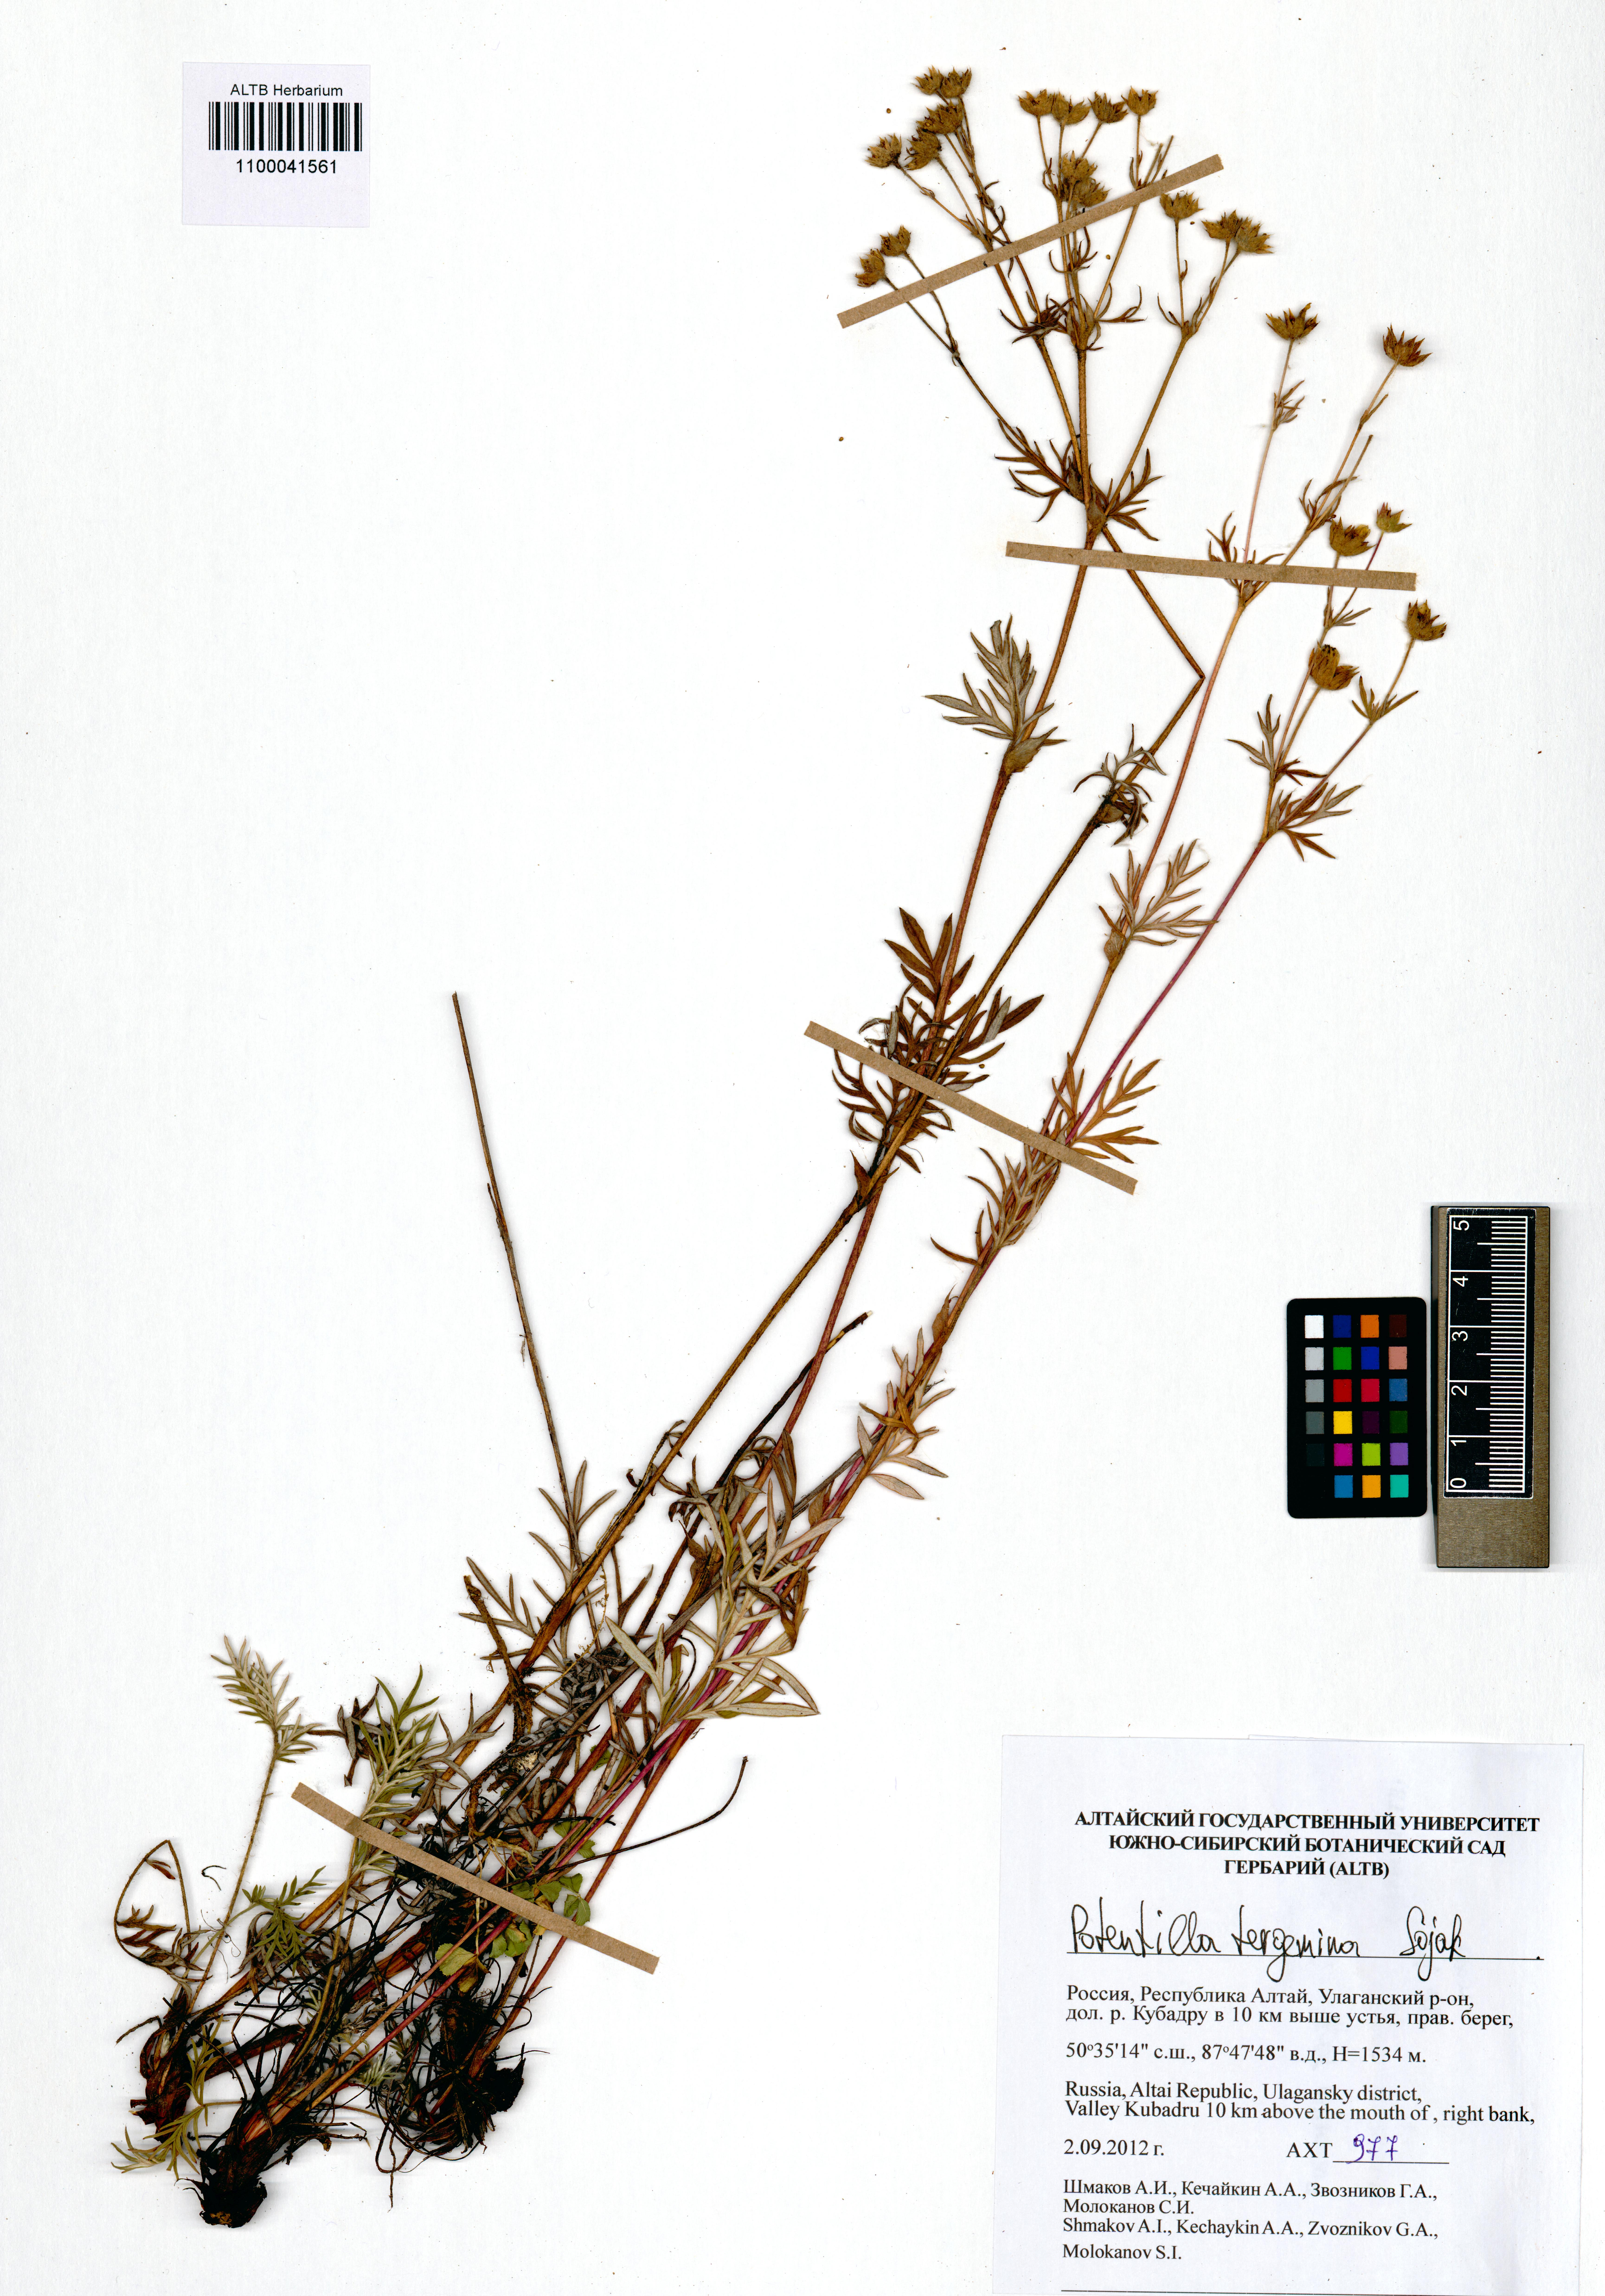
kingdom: Plantae
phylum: Tracheophyta
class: Magnoliopsida
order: Rosales
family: Rosaceae
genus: Potentilla
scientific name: Potentilla tergemina
